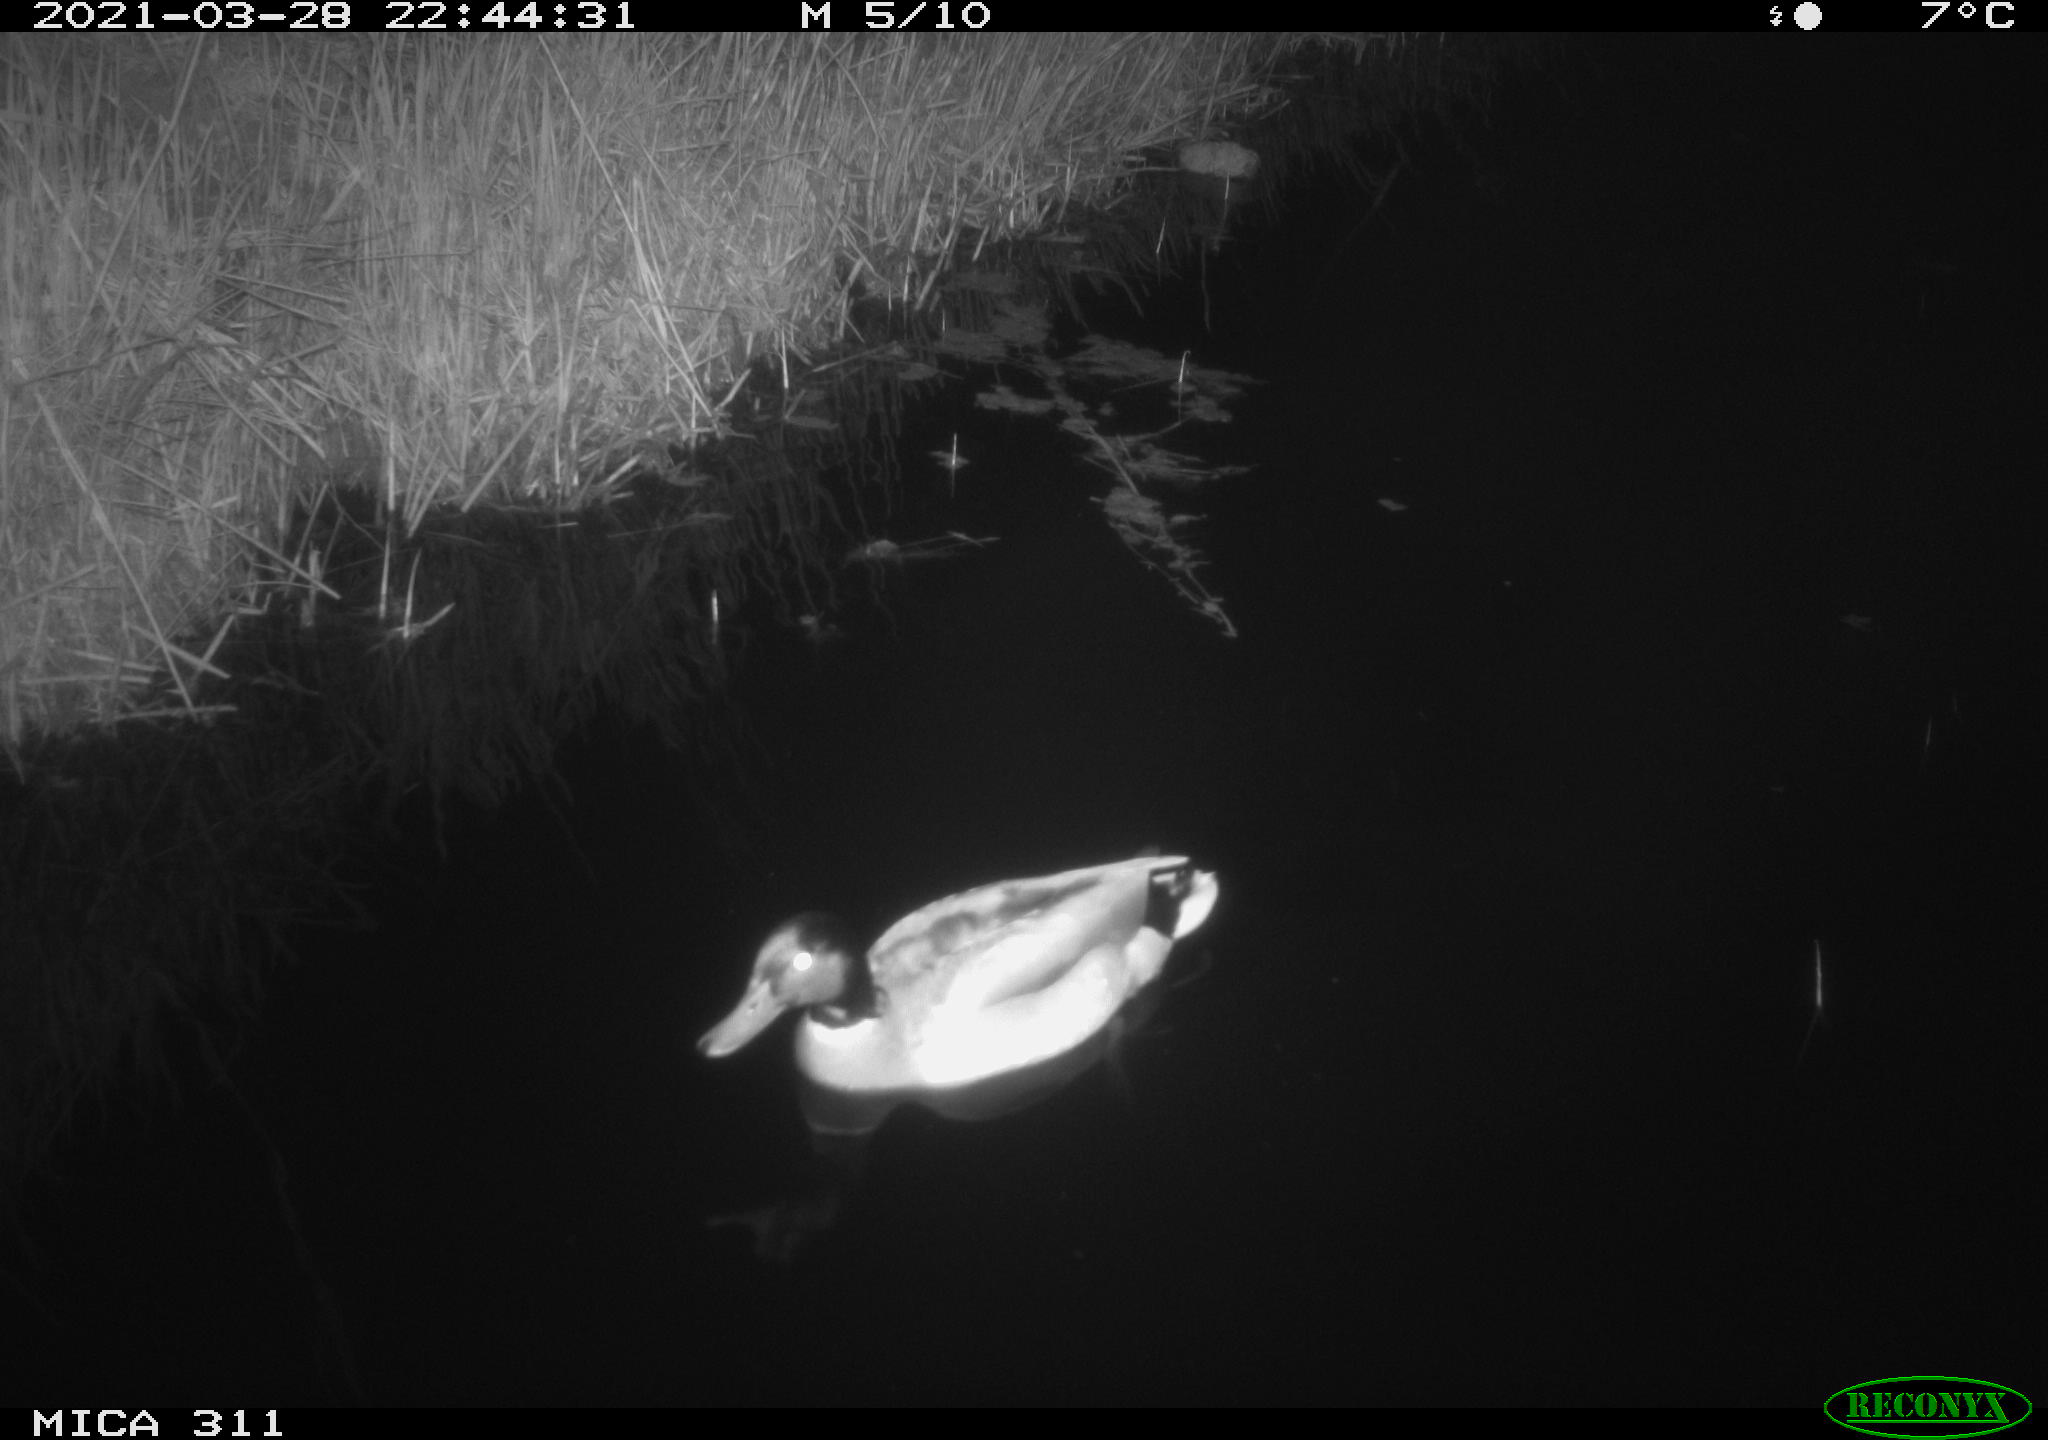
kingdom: Animalia
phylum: Chordata
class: Aves
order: Anseriformes
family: Anatidae
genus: Anas
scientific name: Anas
